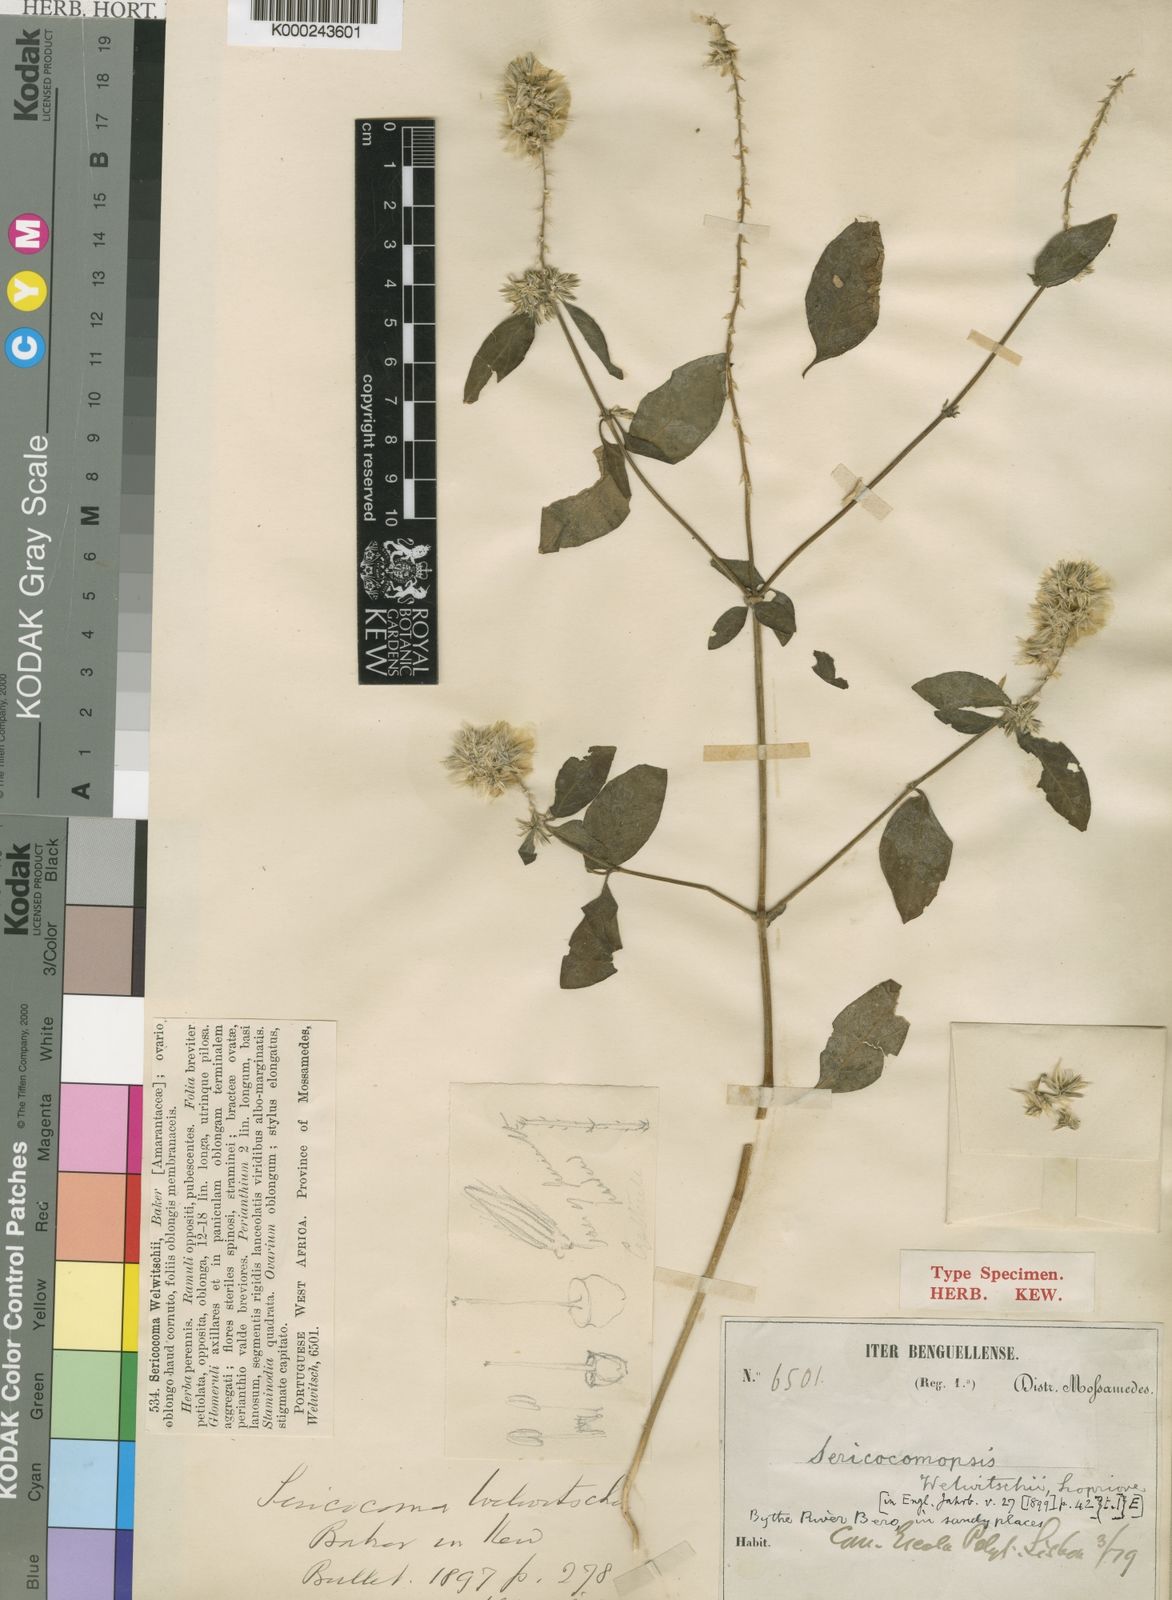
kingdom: Plantae
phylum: Tracheophyta
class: Magnoliopsida
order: Caryophyllales
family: Amaranthaceae
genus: Nelsia
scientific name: Nelsia quadrangula
